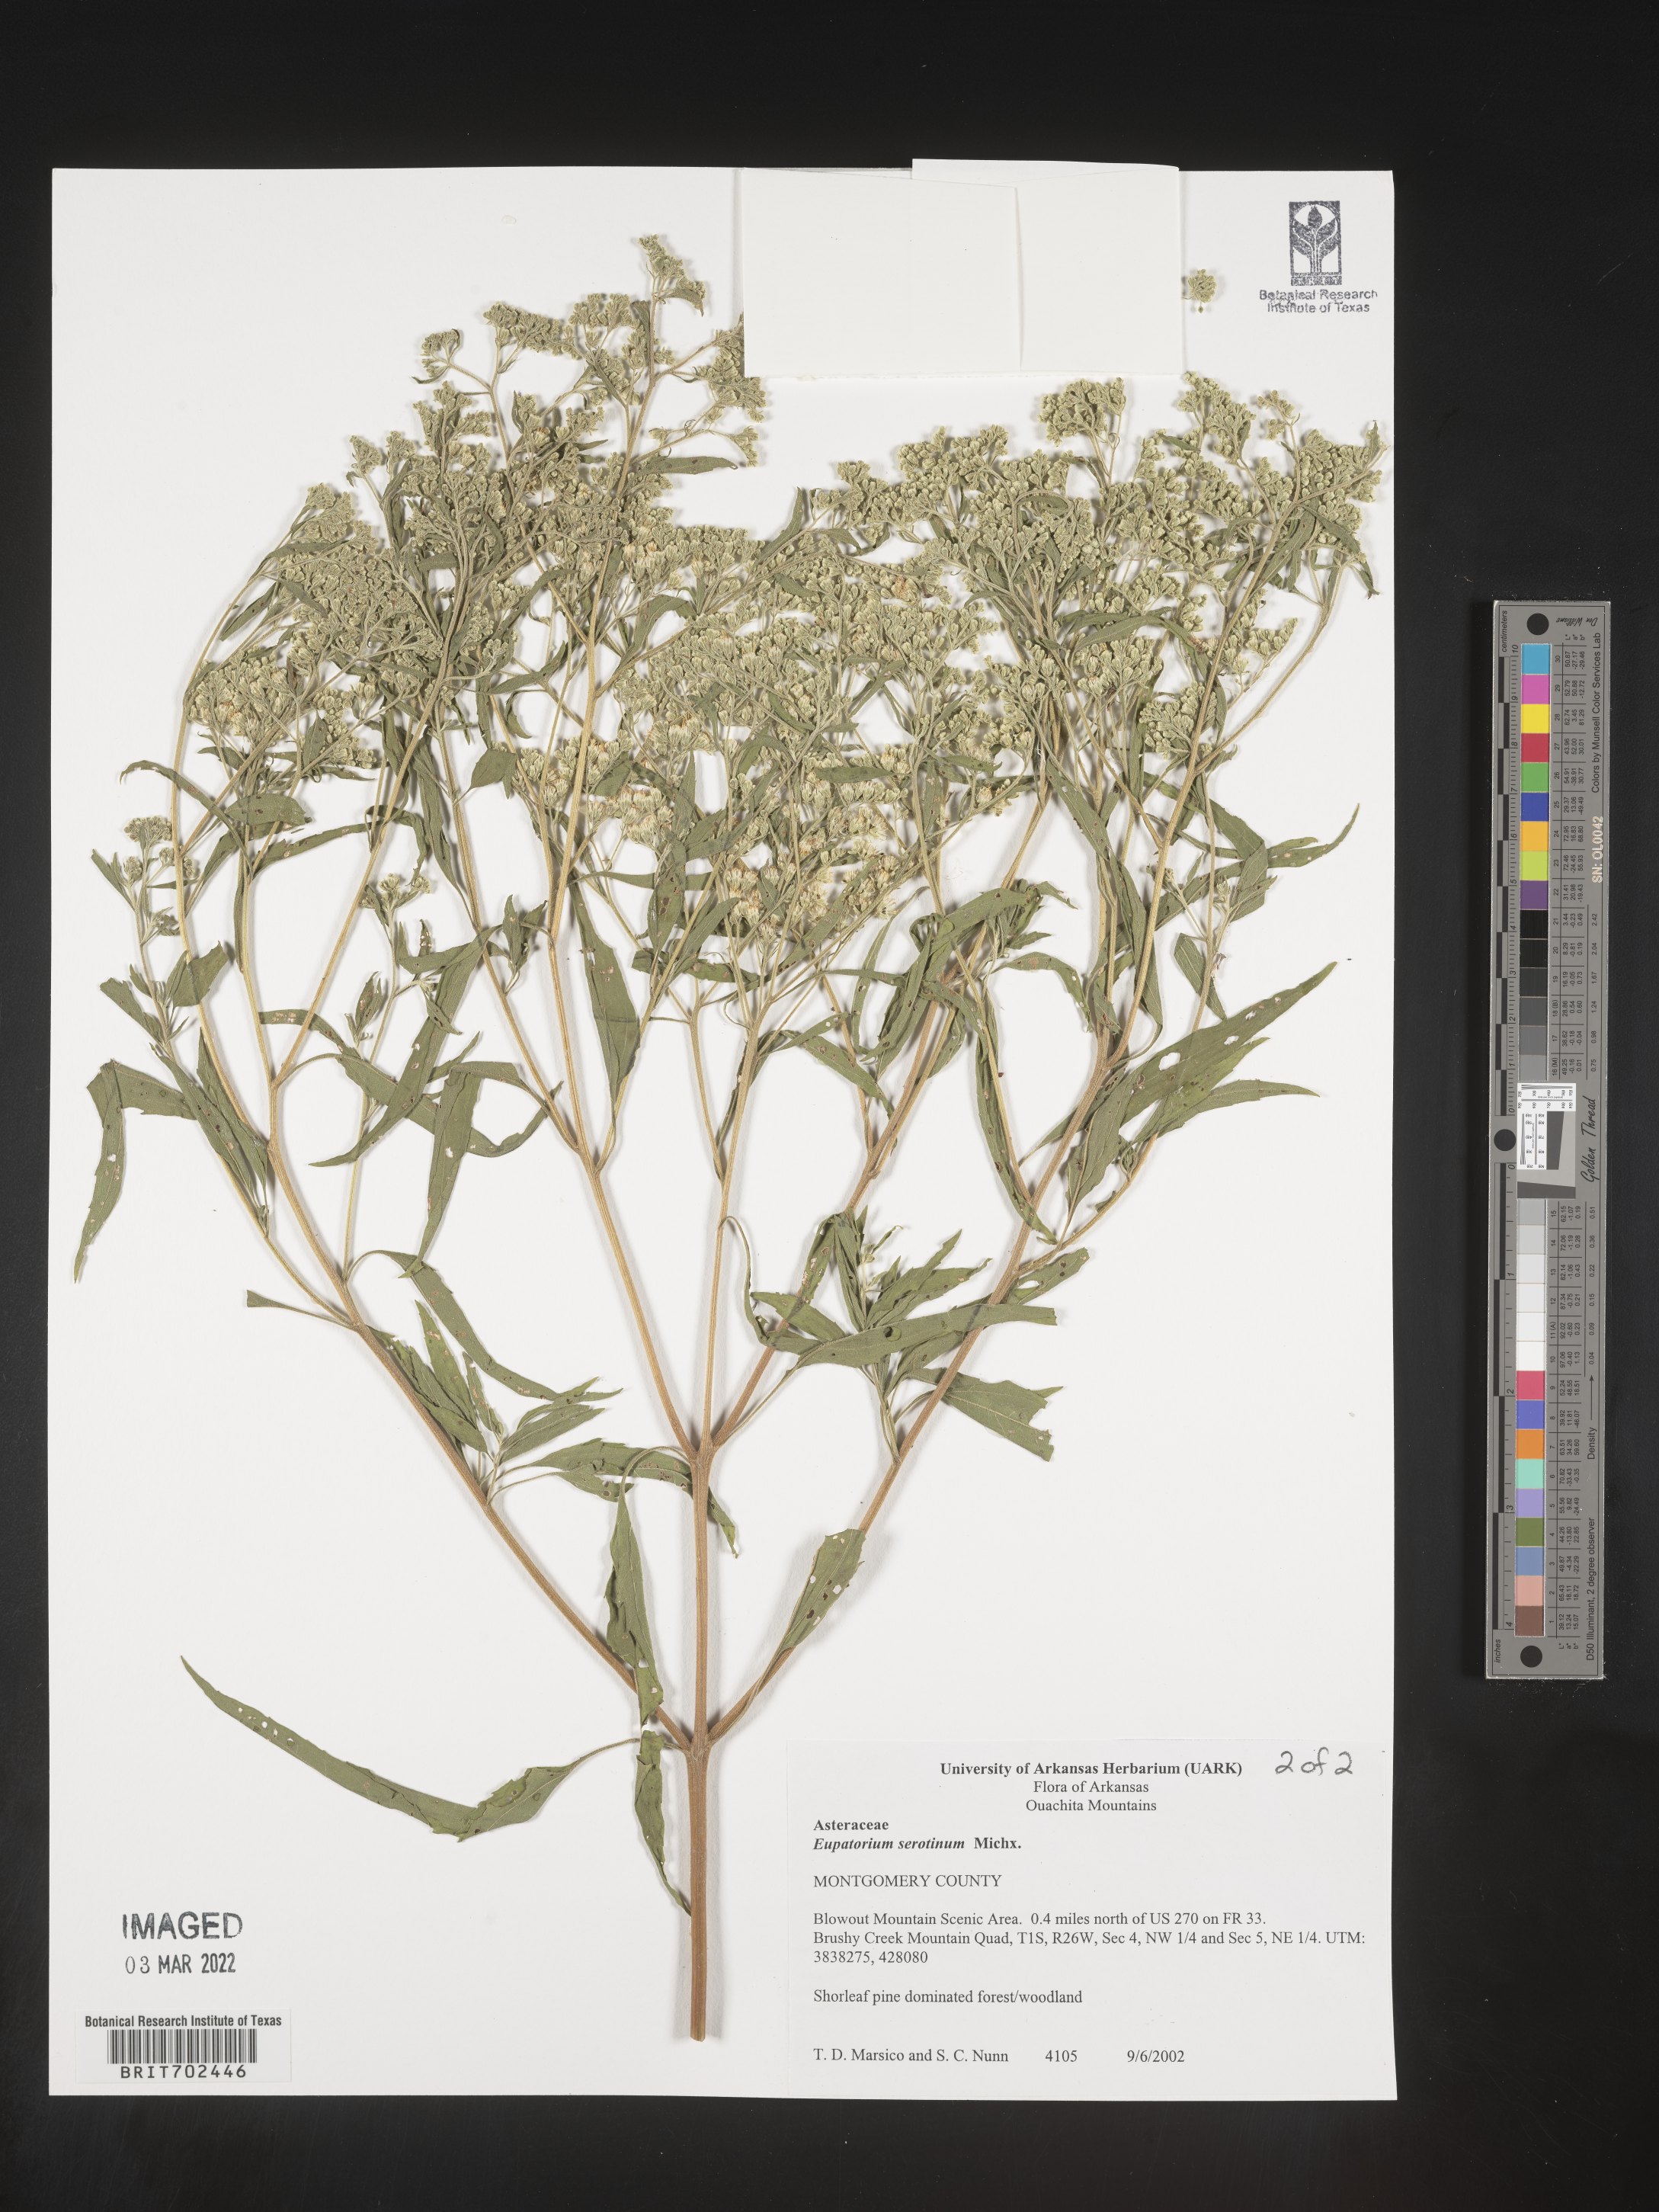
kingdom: Plantae
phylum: Tracheophyta
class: Magnoliopsida
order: Asterales
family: Asteraceae
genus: Eupatorium
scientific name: Eupatorium serotinum
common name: Late boneset
